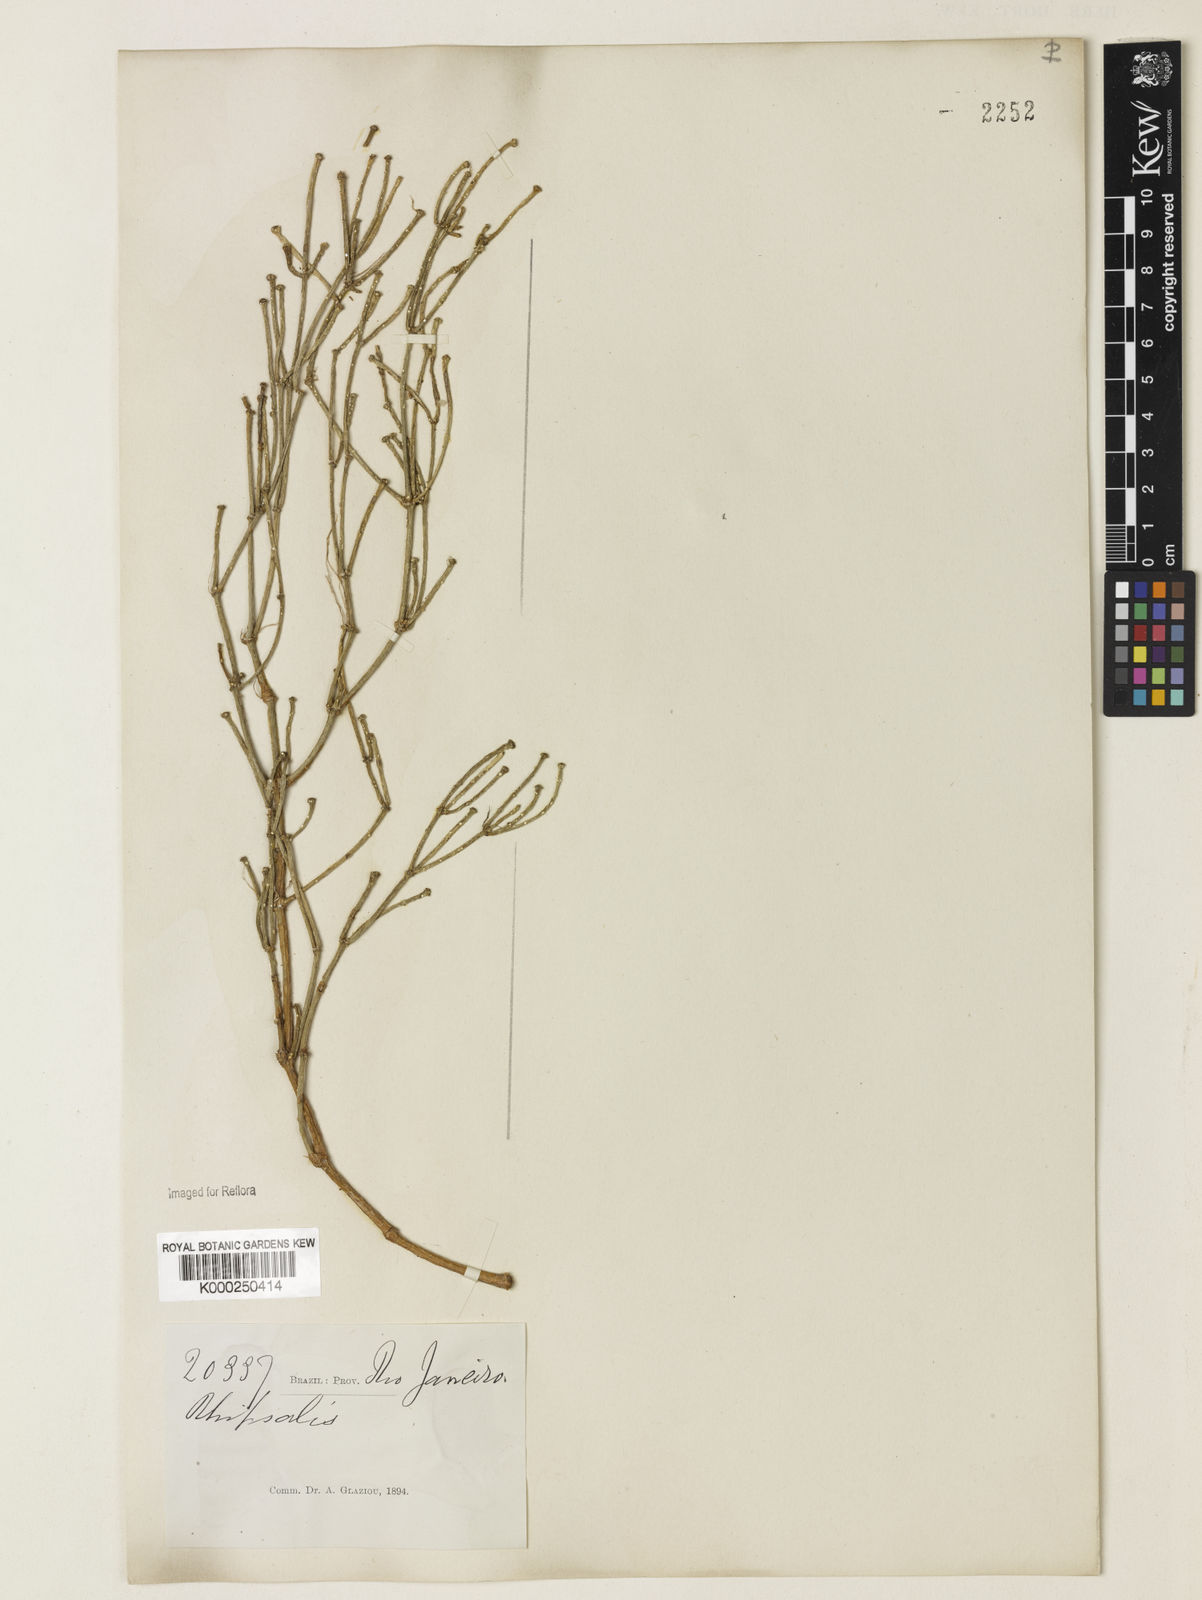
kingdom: Plantae
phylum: Tracheophyta
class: Magnoliopsida
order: Caryophyllales
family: Cactaceae
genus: Rhipsalis
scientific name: Rhipsalis clavata
